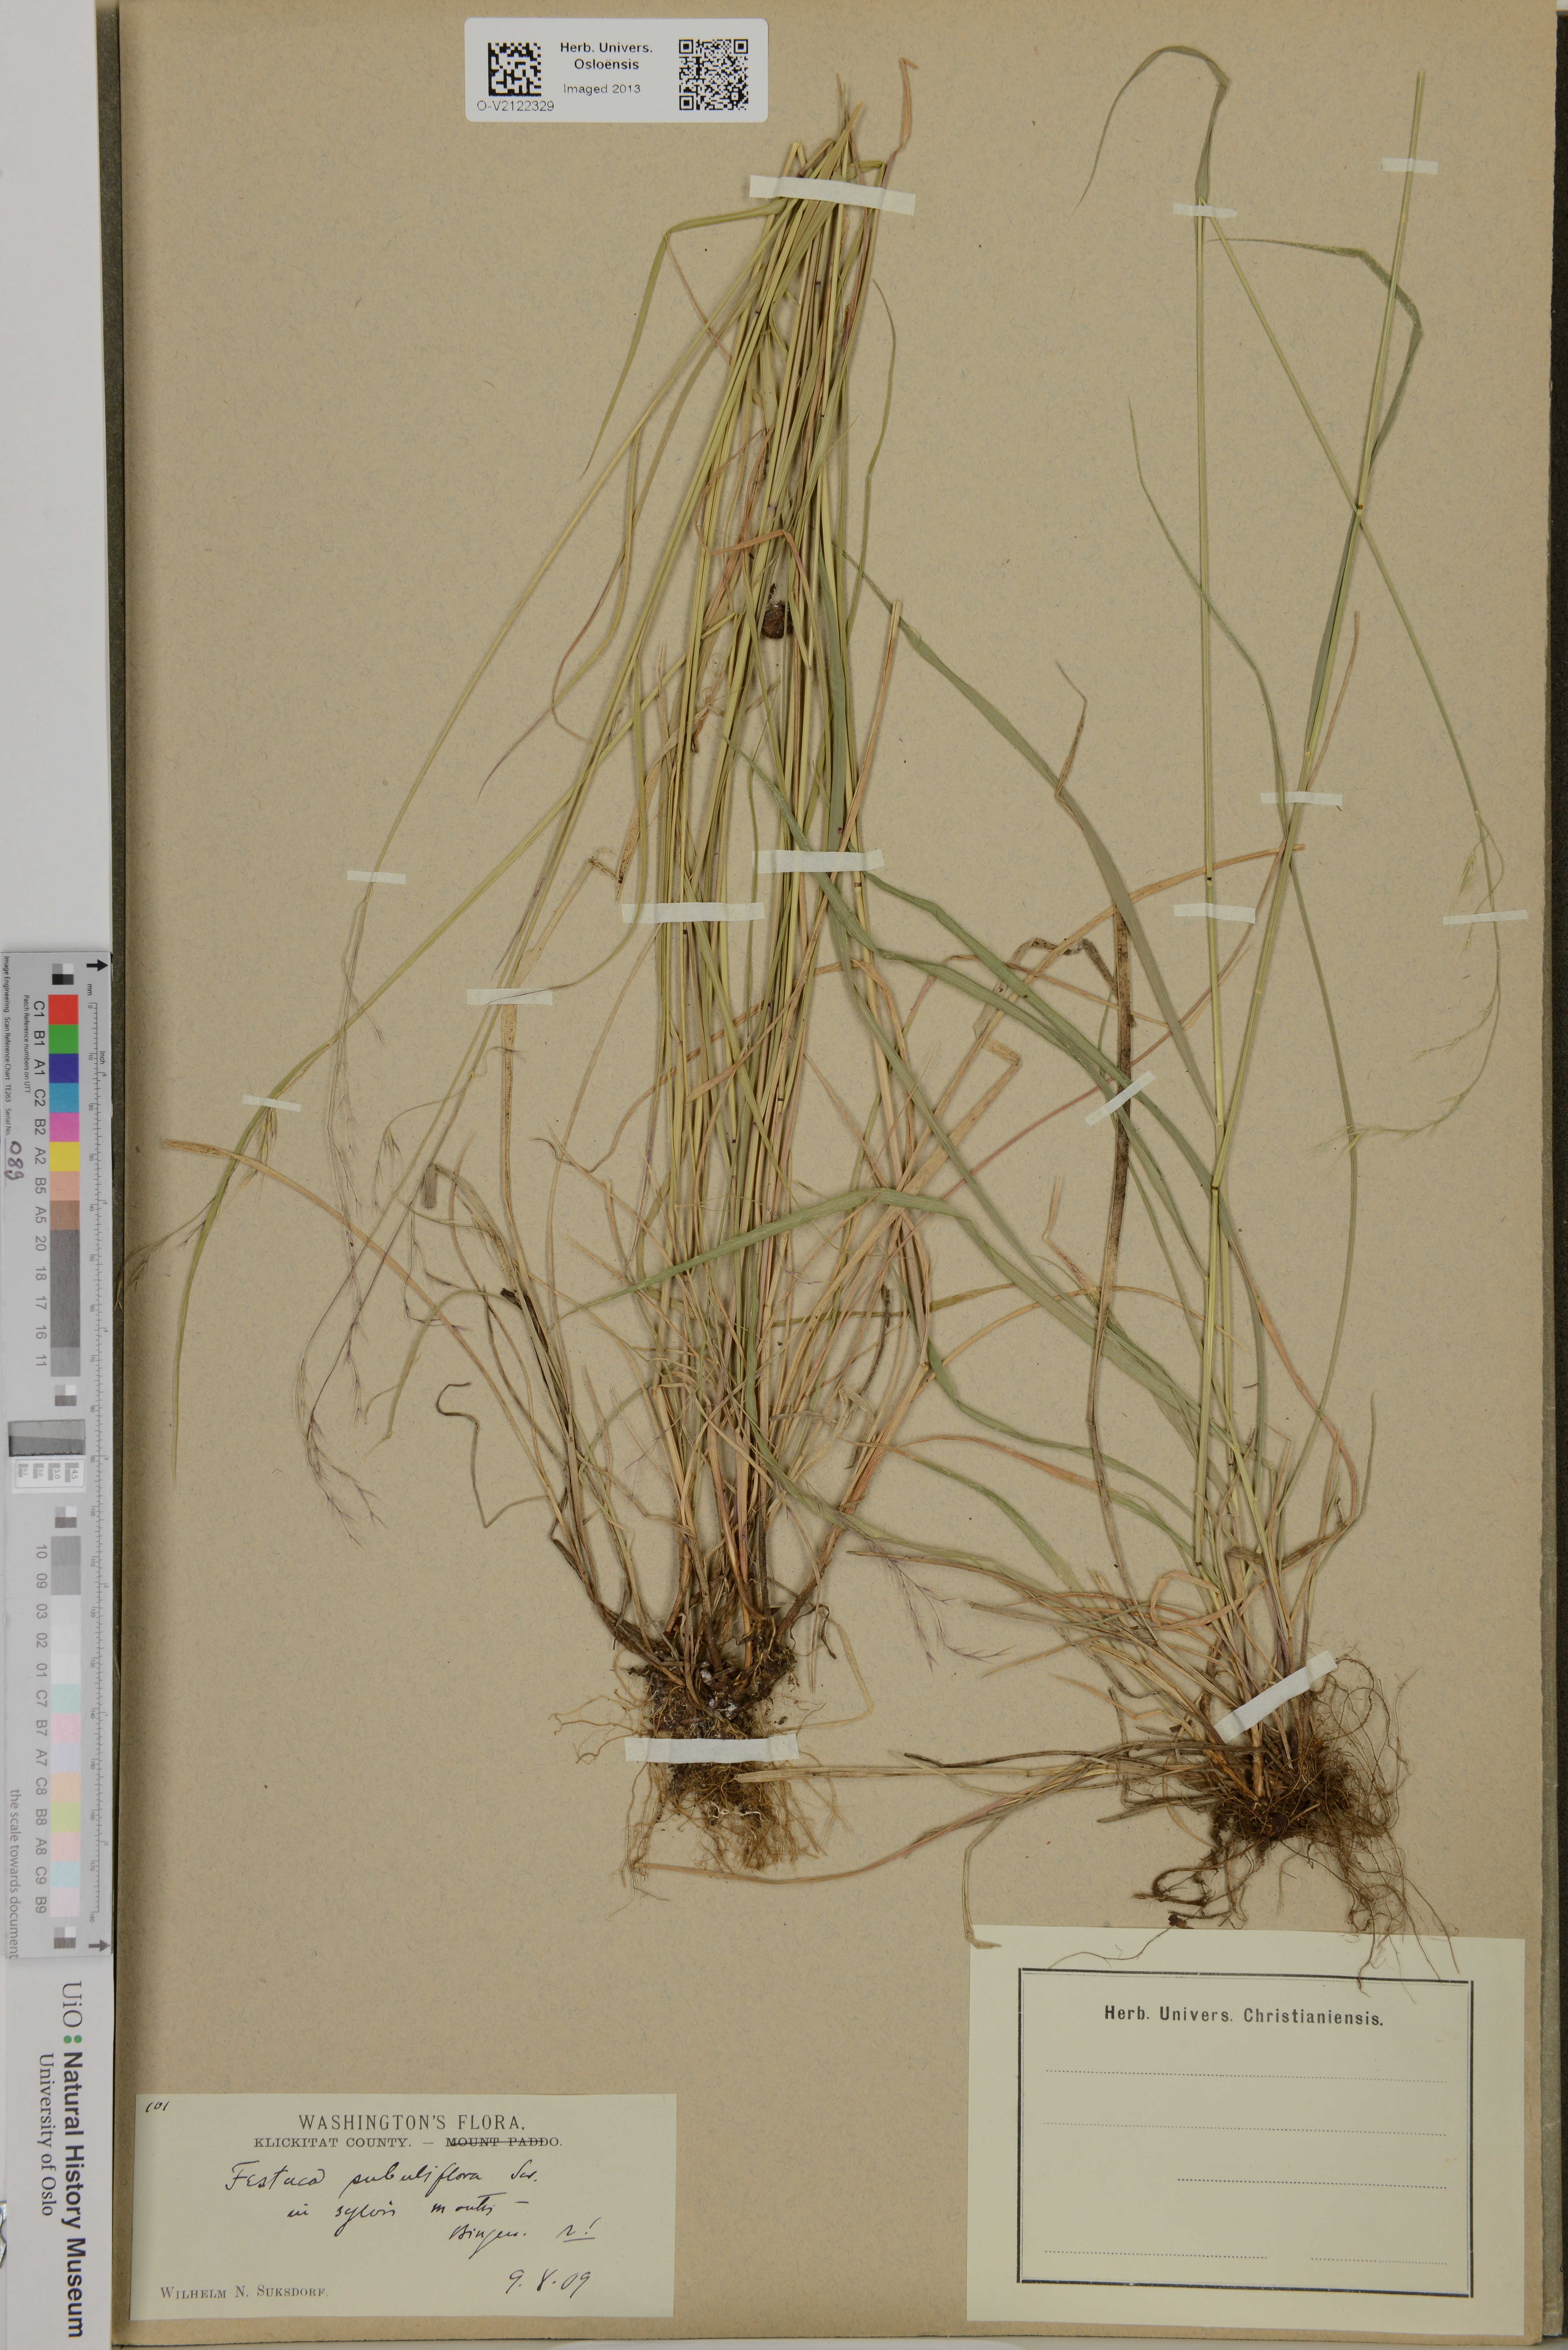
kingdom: Plantae
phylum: Tracheophyta
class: Liliopsida
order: Poales
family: Poaceae
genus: Festuca
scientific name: Festuca subuliflora
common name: Crinkle-awn fescue
